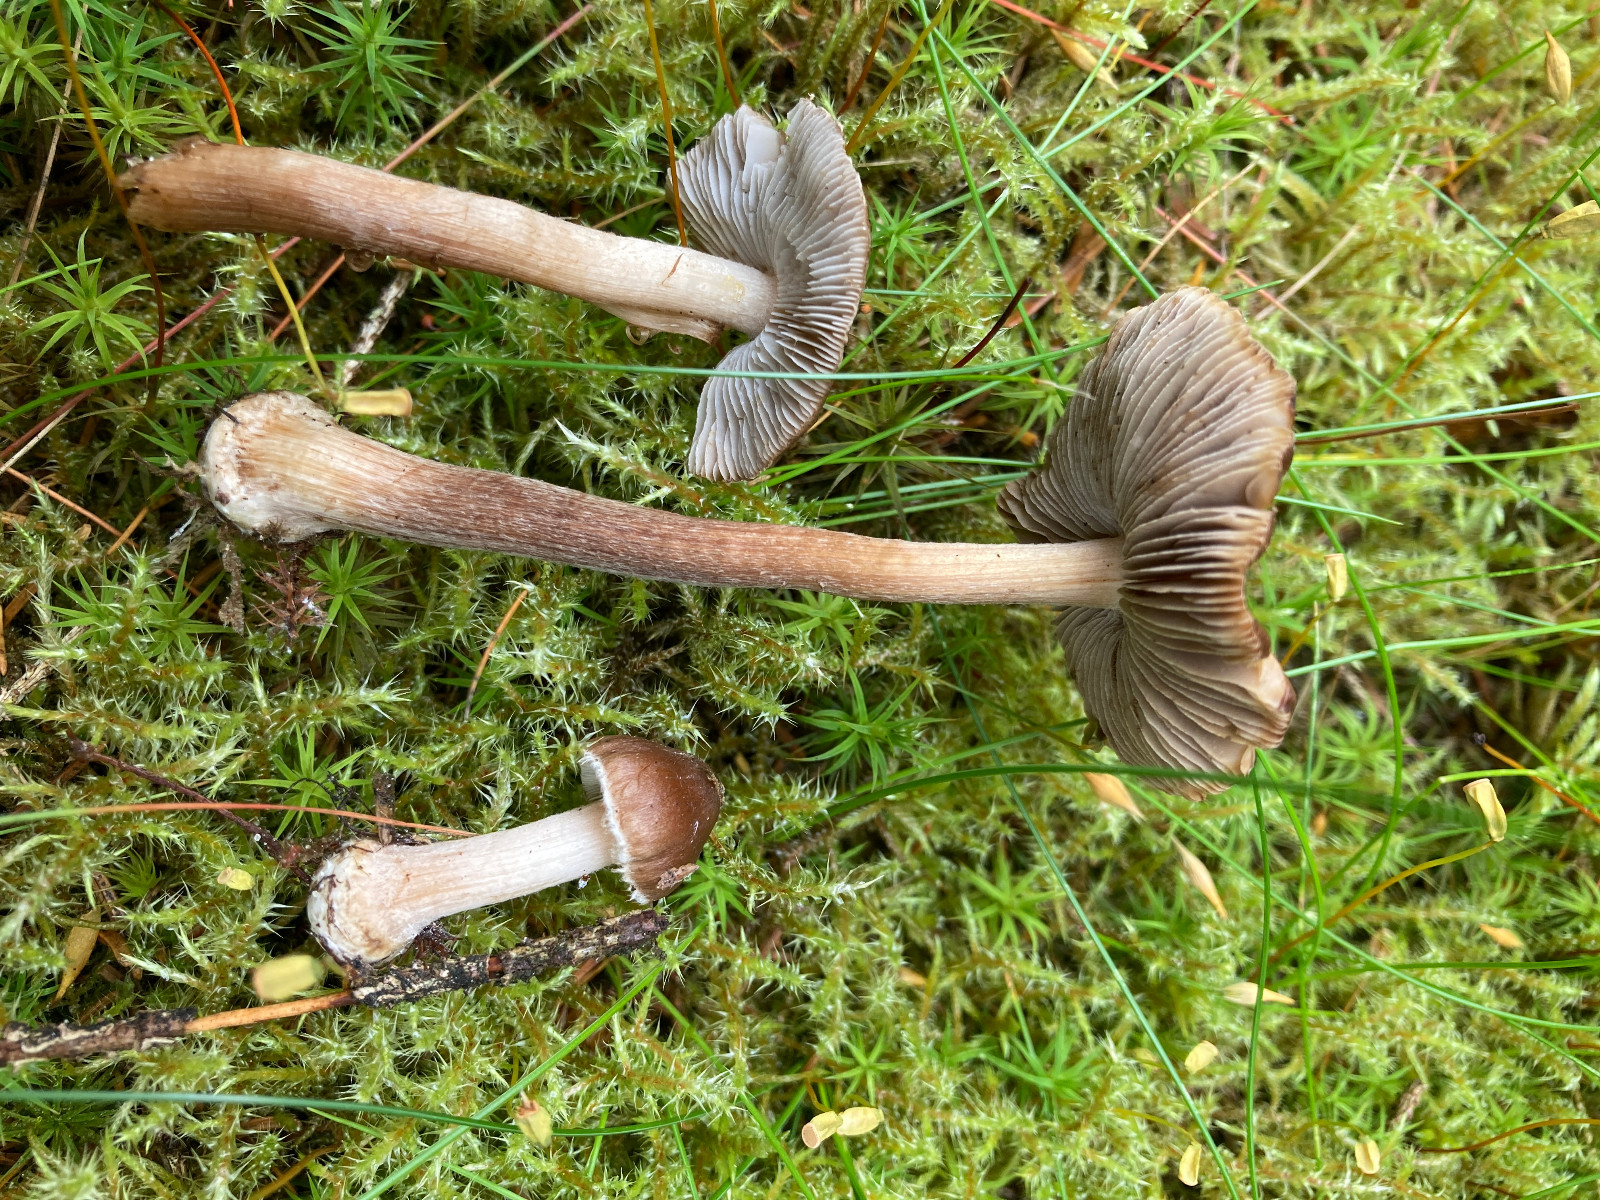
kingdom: Fungi
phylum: Basidiomycota
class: Agaricomycetes
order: Agaricales
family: Inocybaceae
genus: Inocybe
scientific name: Inocybe napipes
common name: roeknoldet trævlhat
